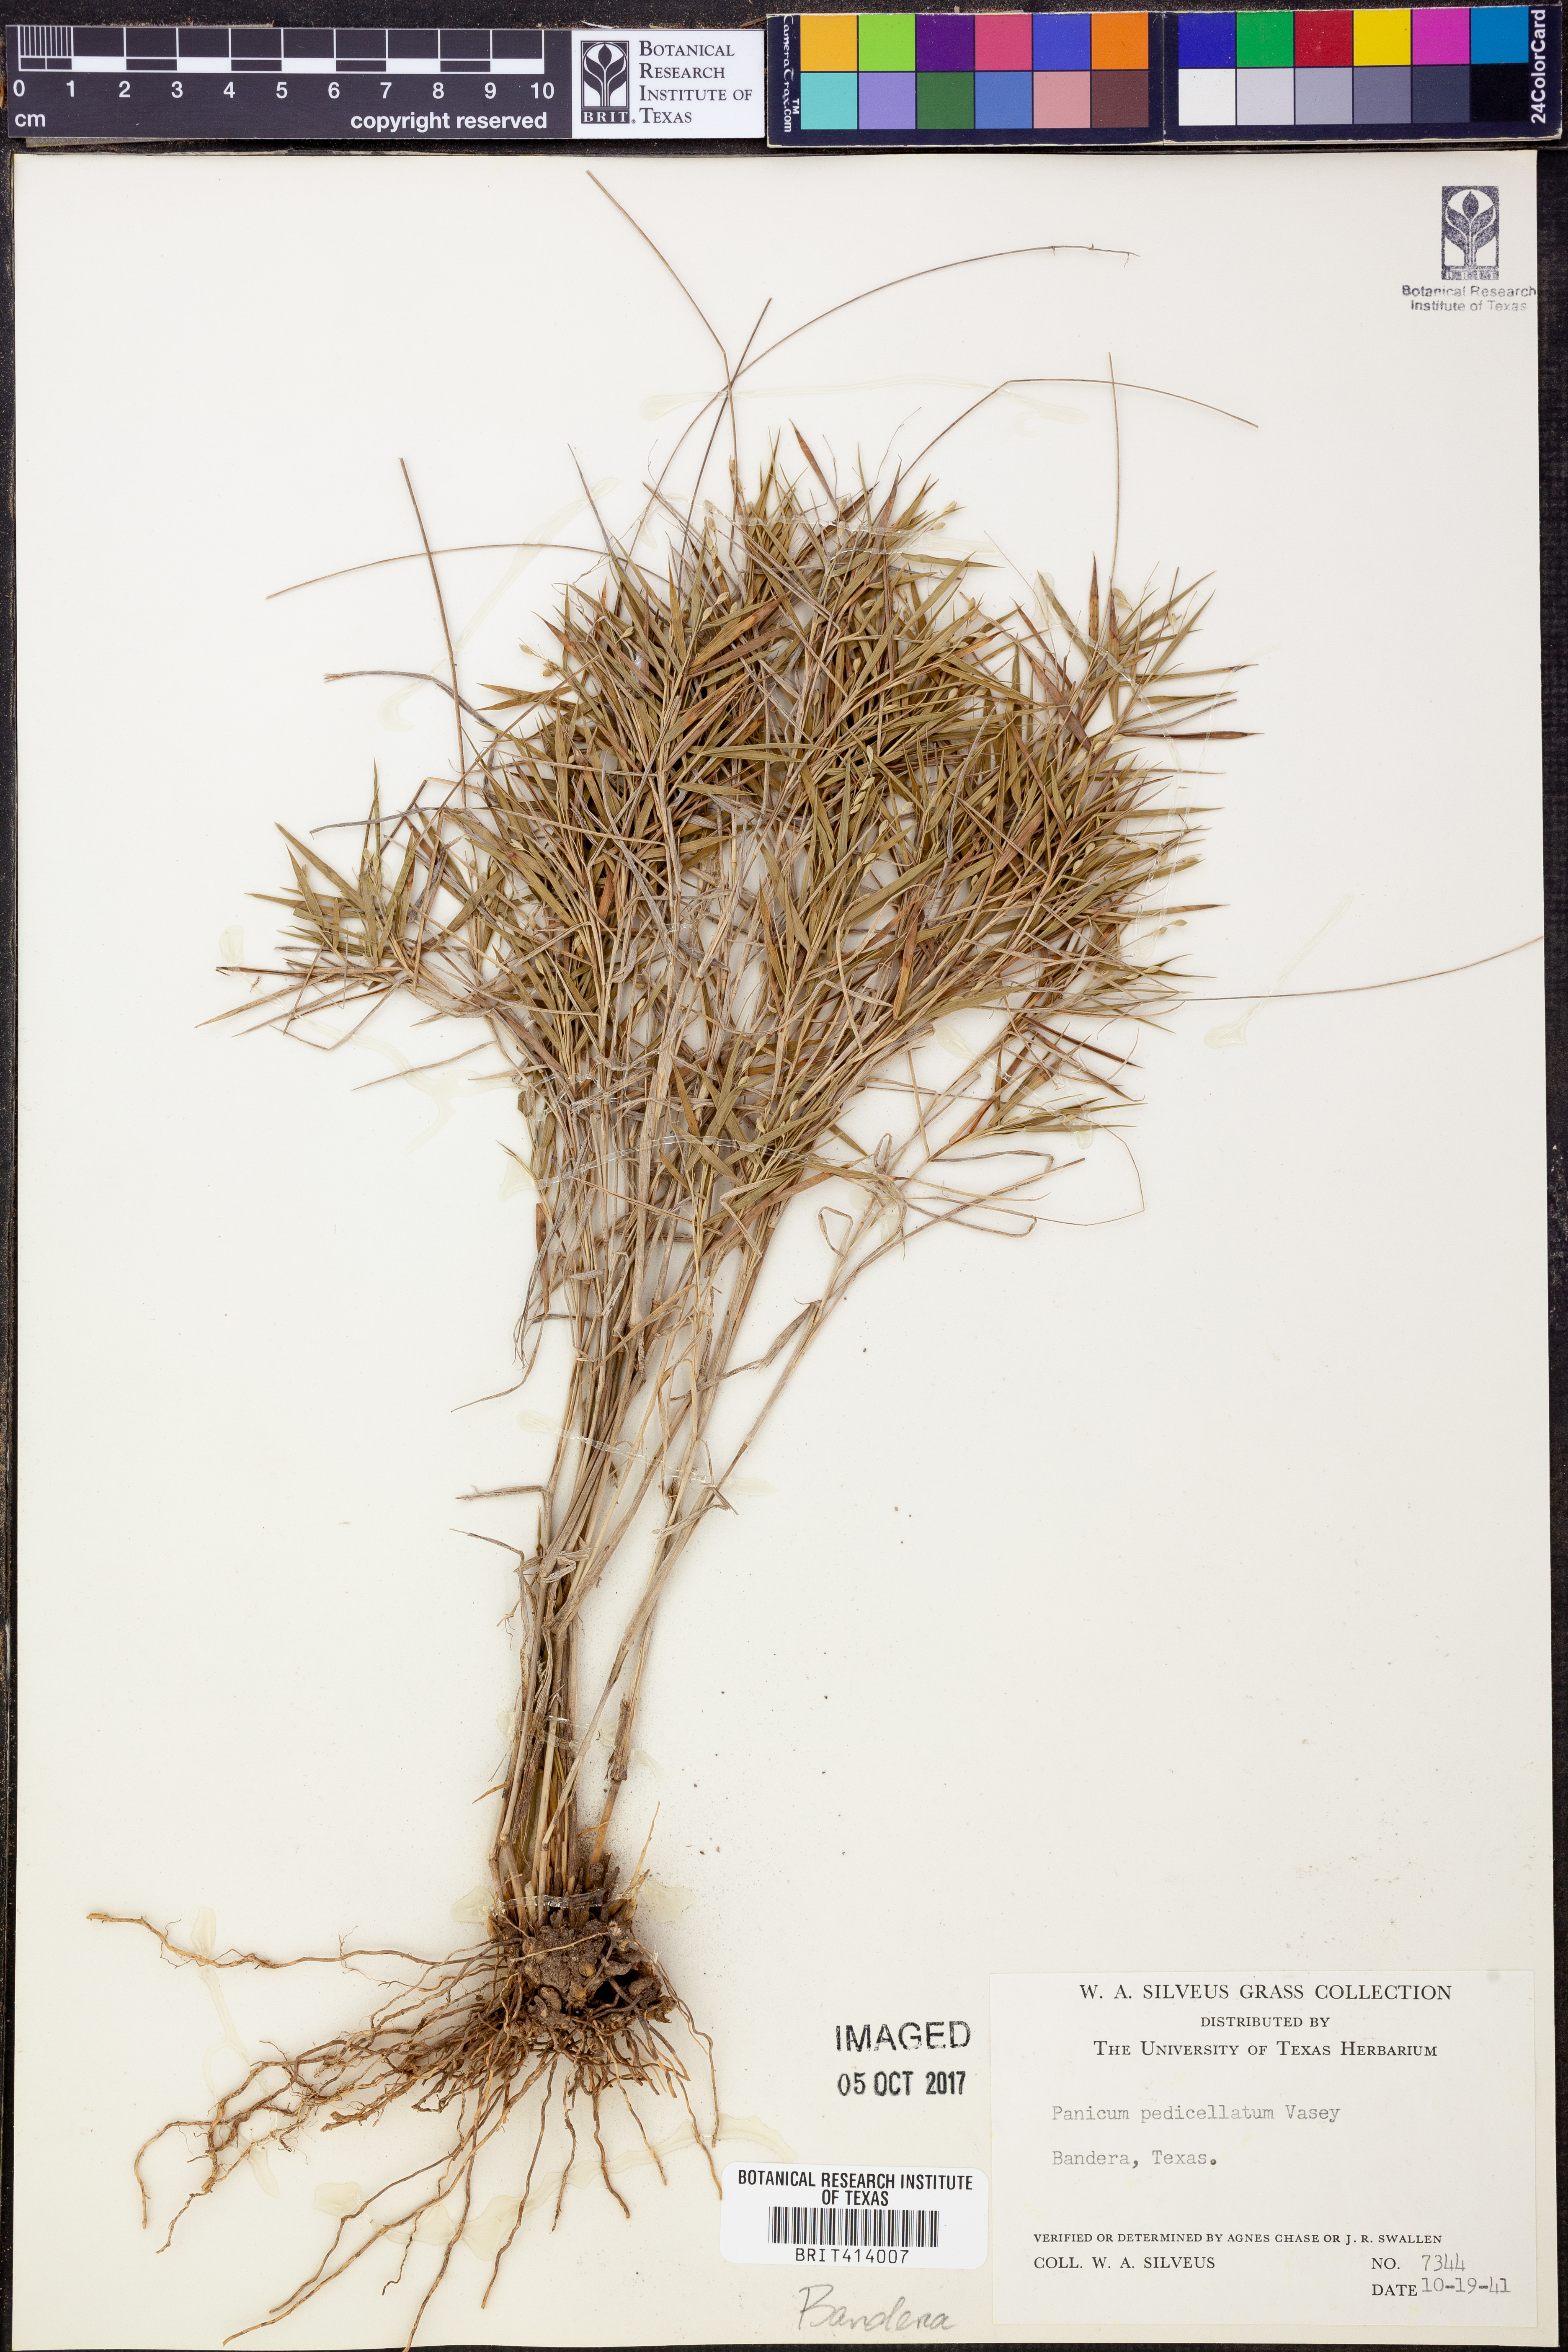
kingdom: Plantae
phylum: Tracheophyta
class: Liliopsida
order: Poales
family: Poaceae
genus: Dichanthelium
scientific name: Dichanthelium transiens
